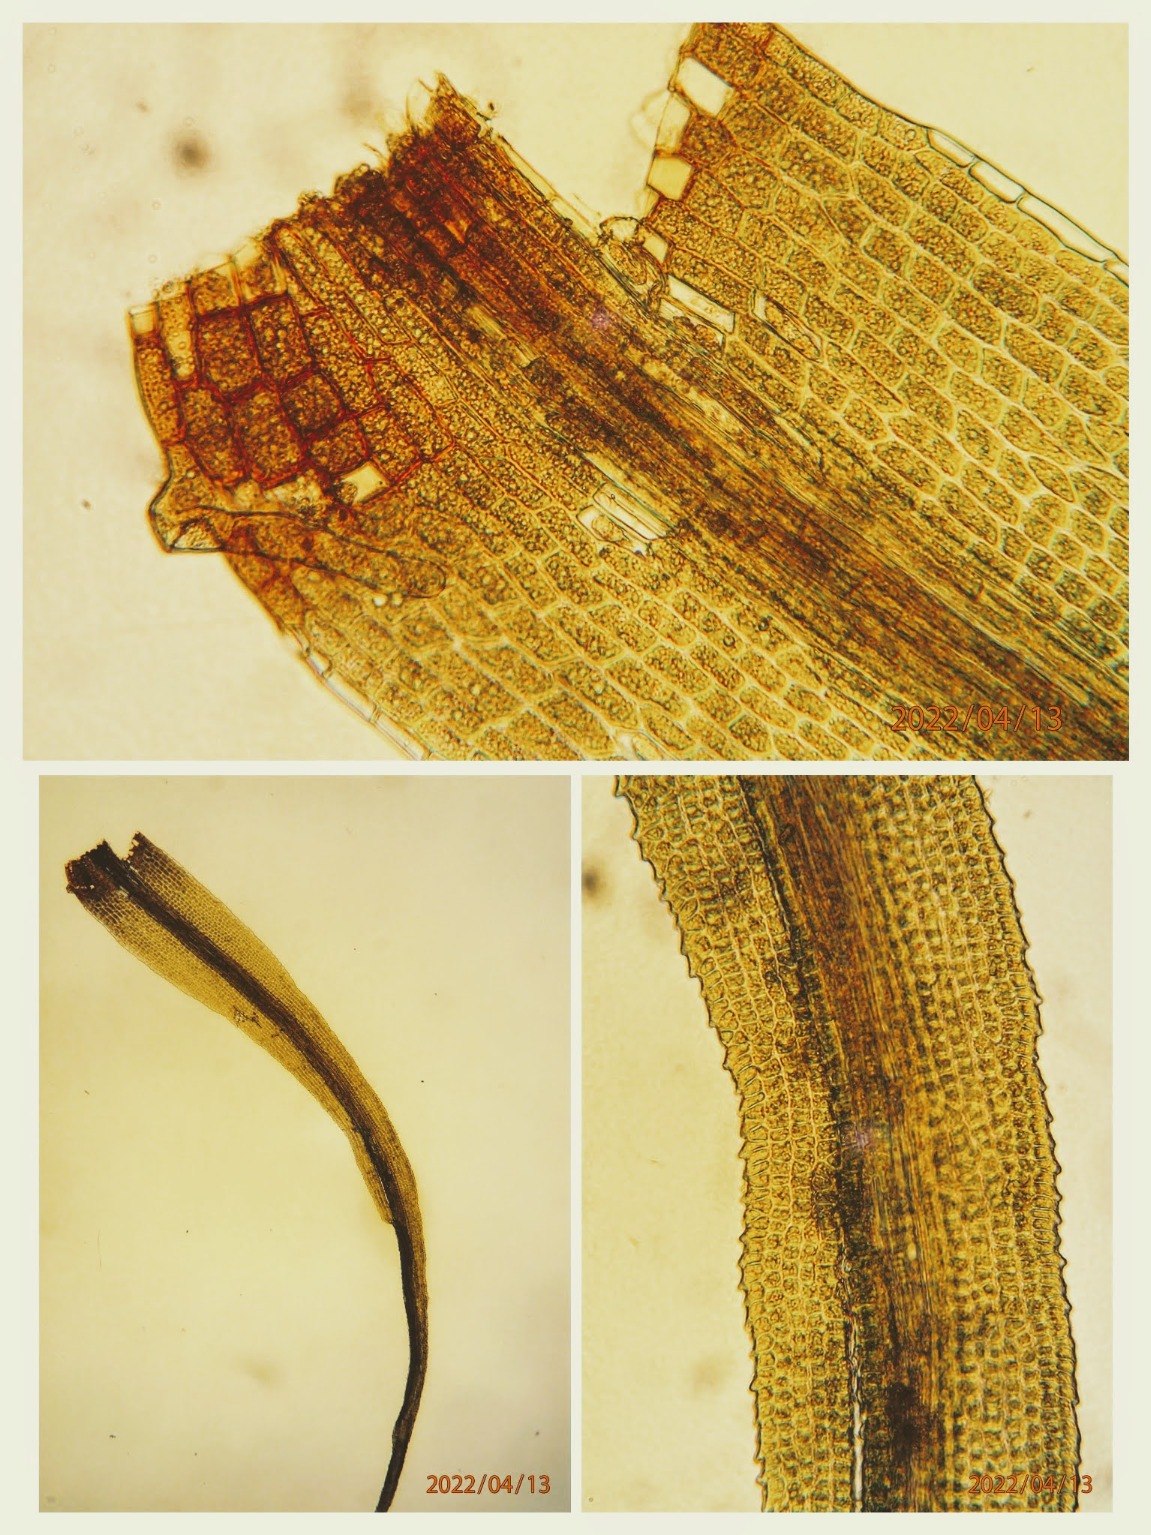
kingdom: Plantae
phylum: Bryophyta
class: Bryopsida
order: Dicranales
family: Dicranaceae
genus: Orthodicranum
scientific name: Orthodicranum montanum
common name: Tæt tyndvinge
